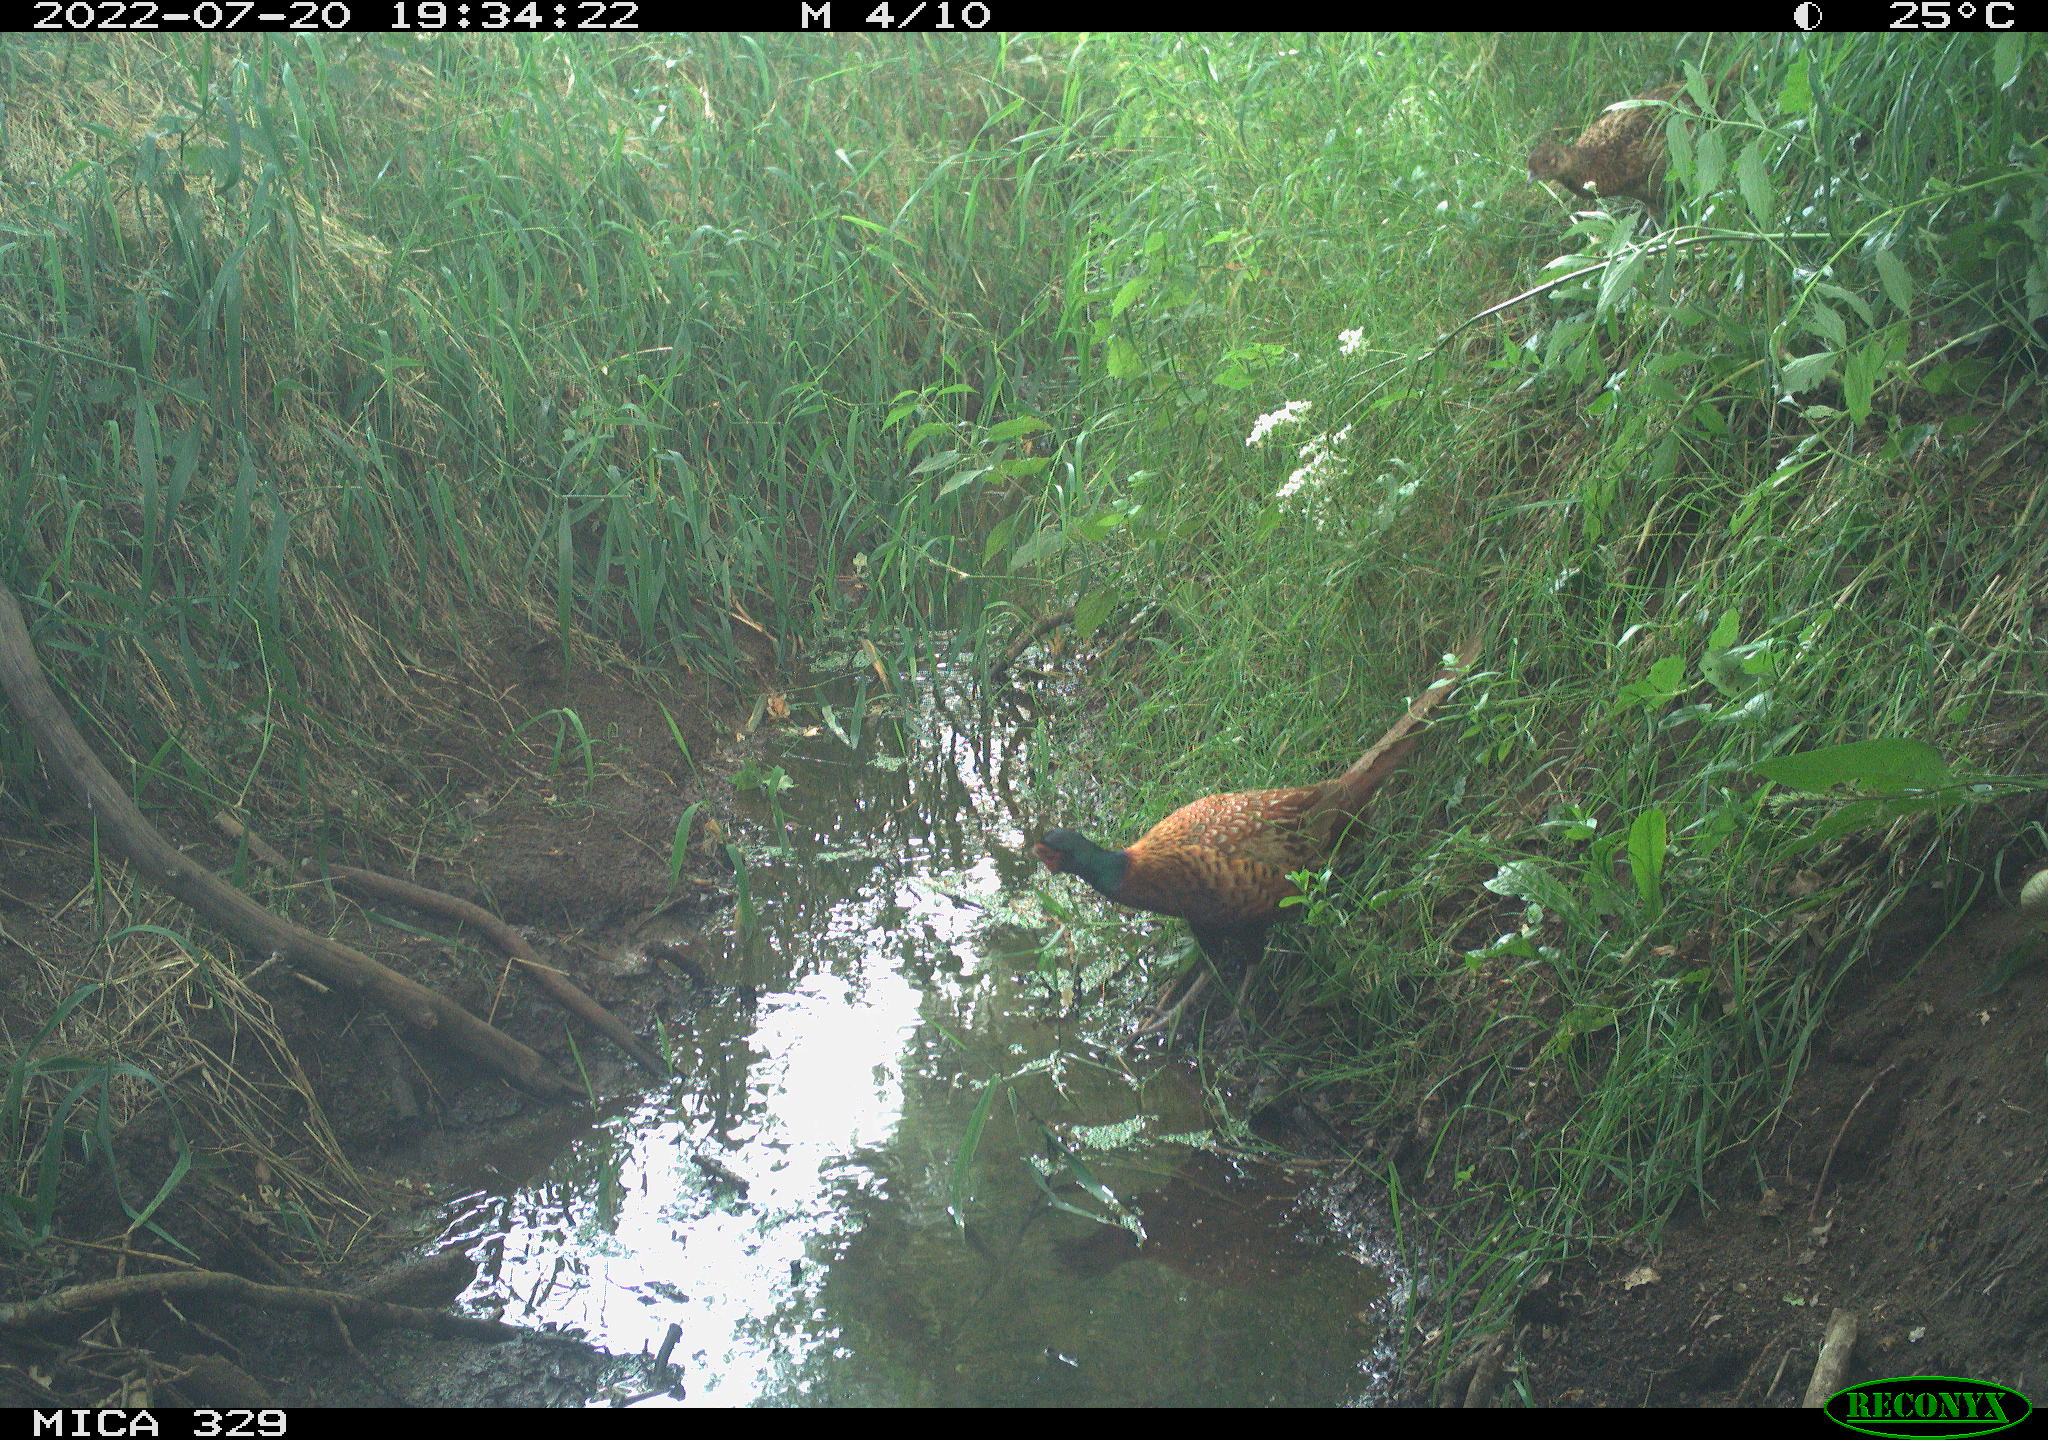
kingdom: Animalia
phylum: Chordata
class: Aves
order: Galliformes
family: Phasianidae
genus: Phasianus
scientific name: Phasianus colchicus
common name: Common pheasant
